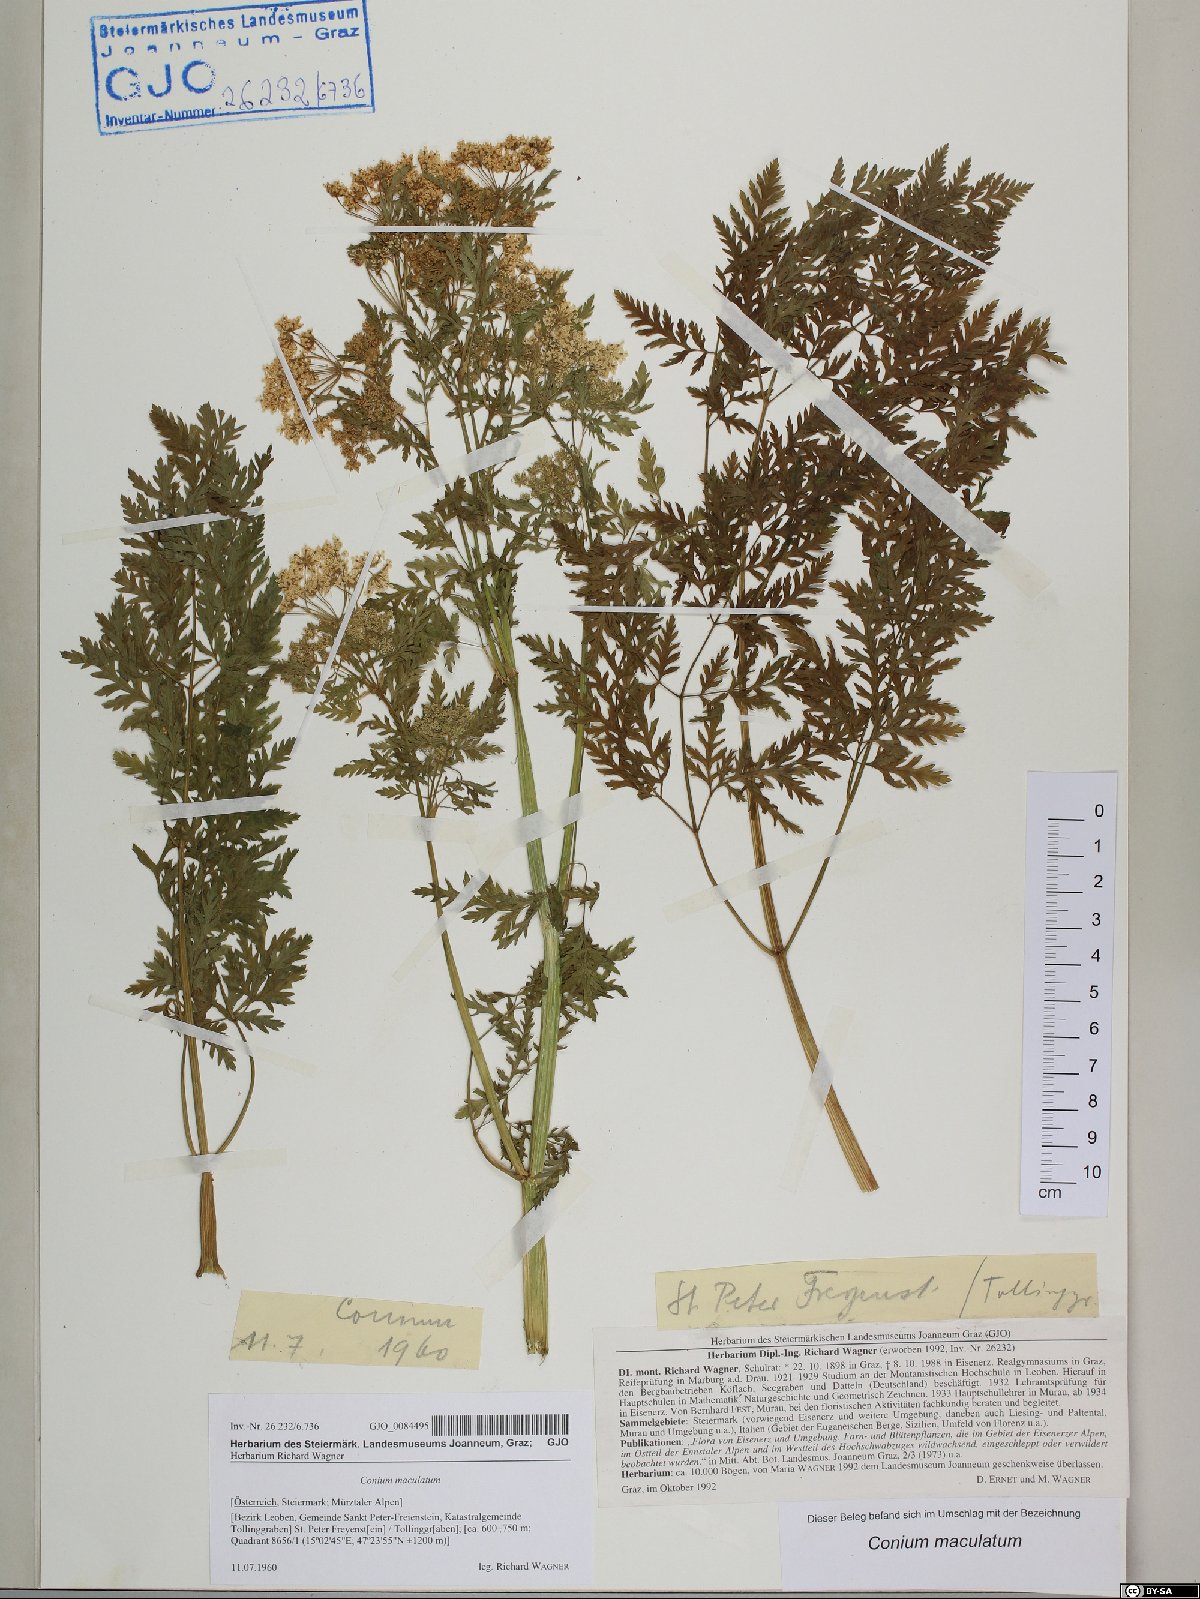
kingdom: Plantae
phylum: Tracheophyta
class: Magnoliopsida
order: Apiales
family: Apiaceae
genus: Conium
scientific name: Conium maculatum
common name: Hemlock
